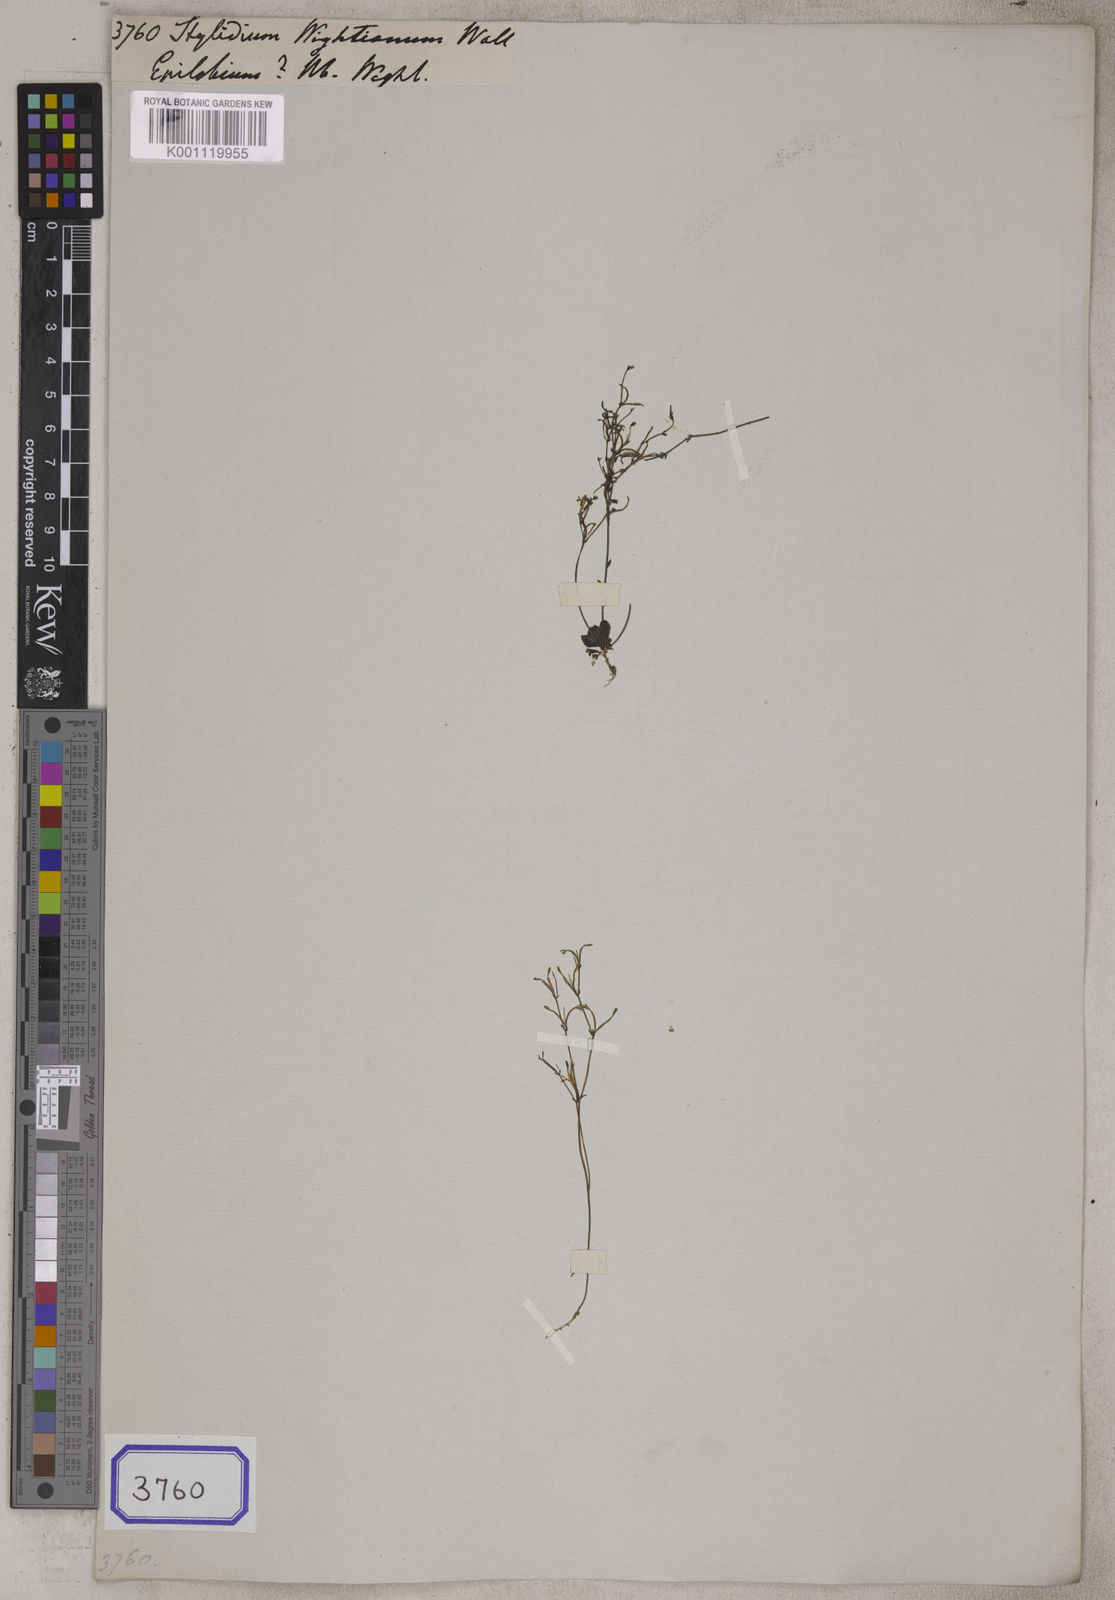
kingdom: Plantae
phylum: Tracheophyta
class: Magnoliopsida
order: Asterales
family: Stylidiaceae
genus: Stylidium
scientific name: Stylidium wightianum
